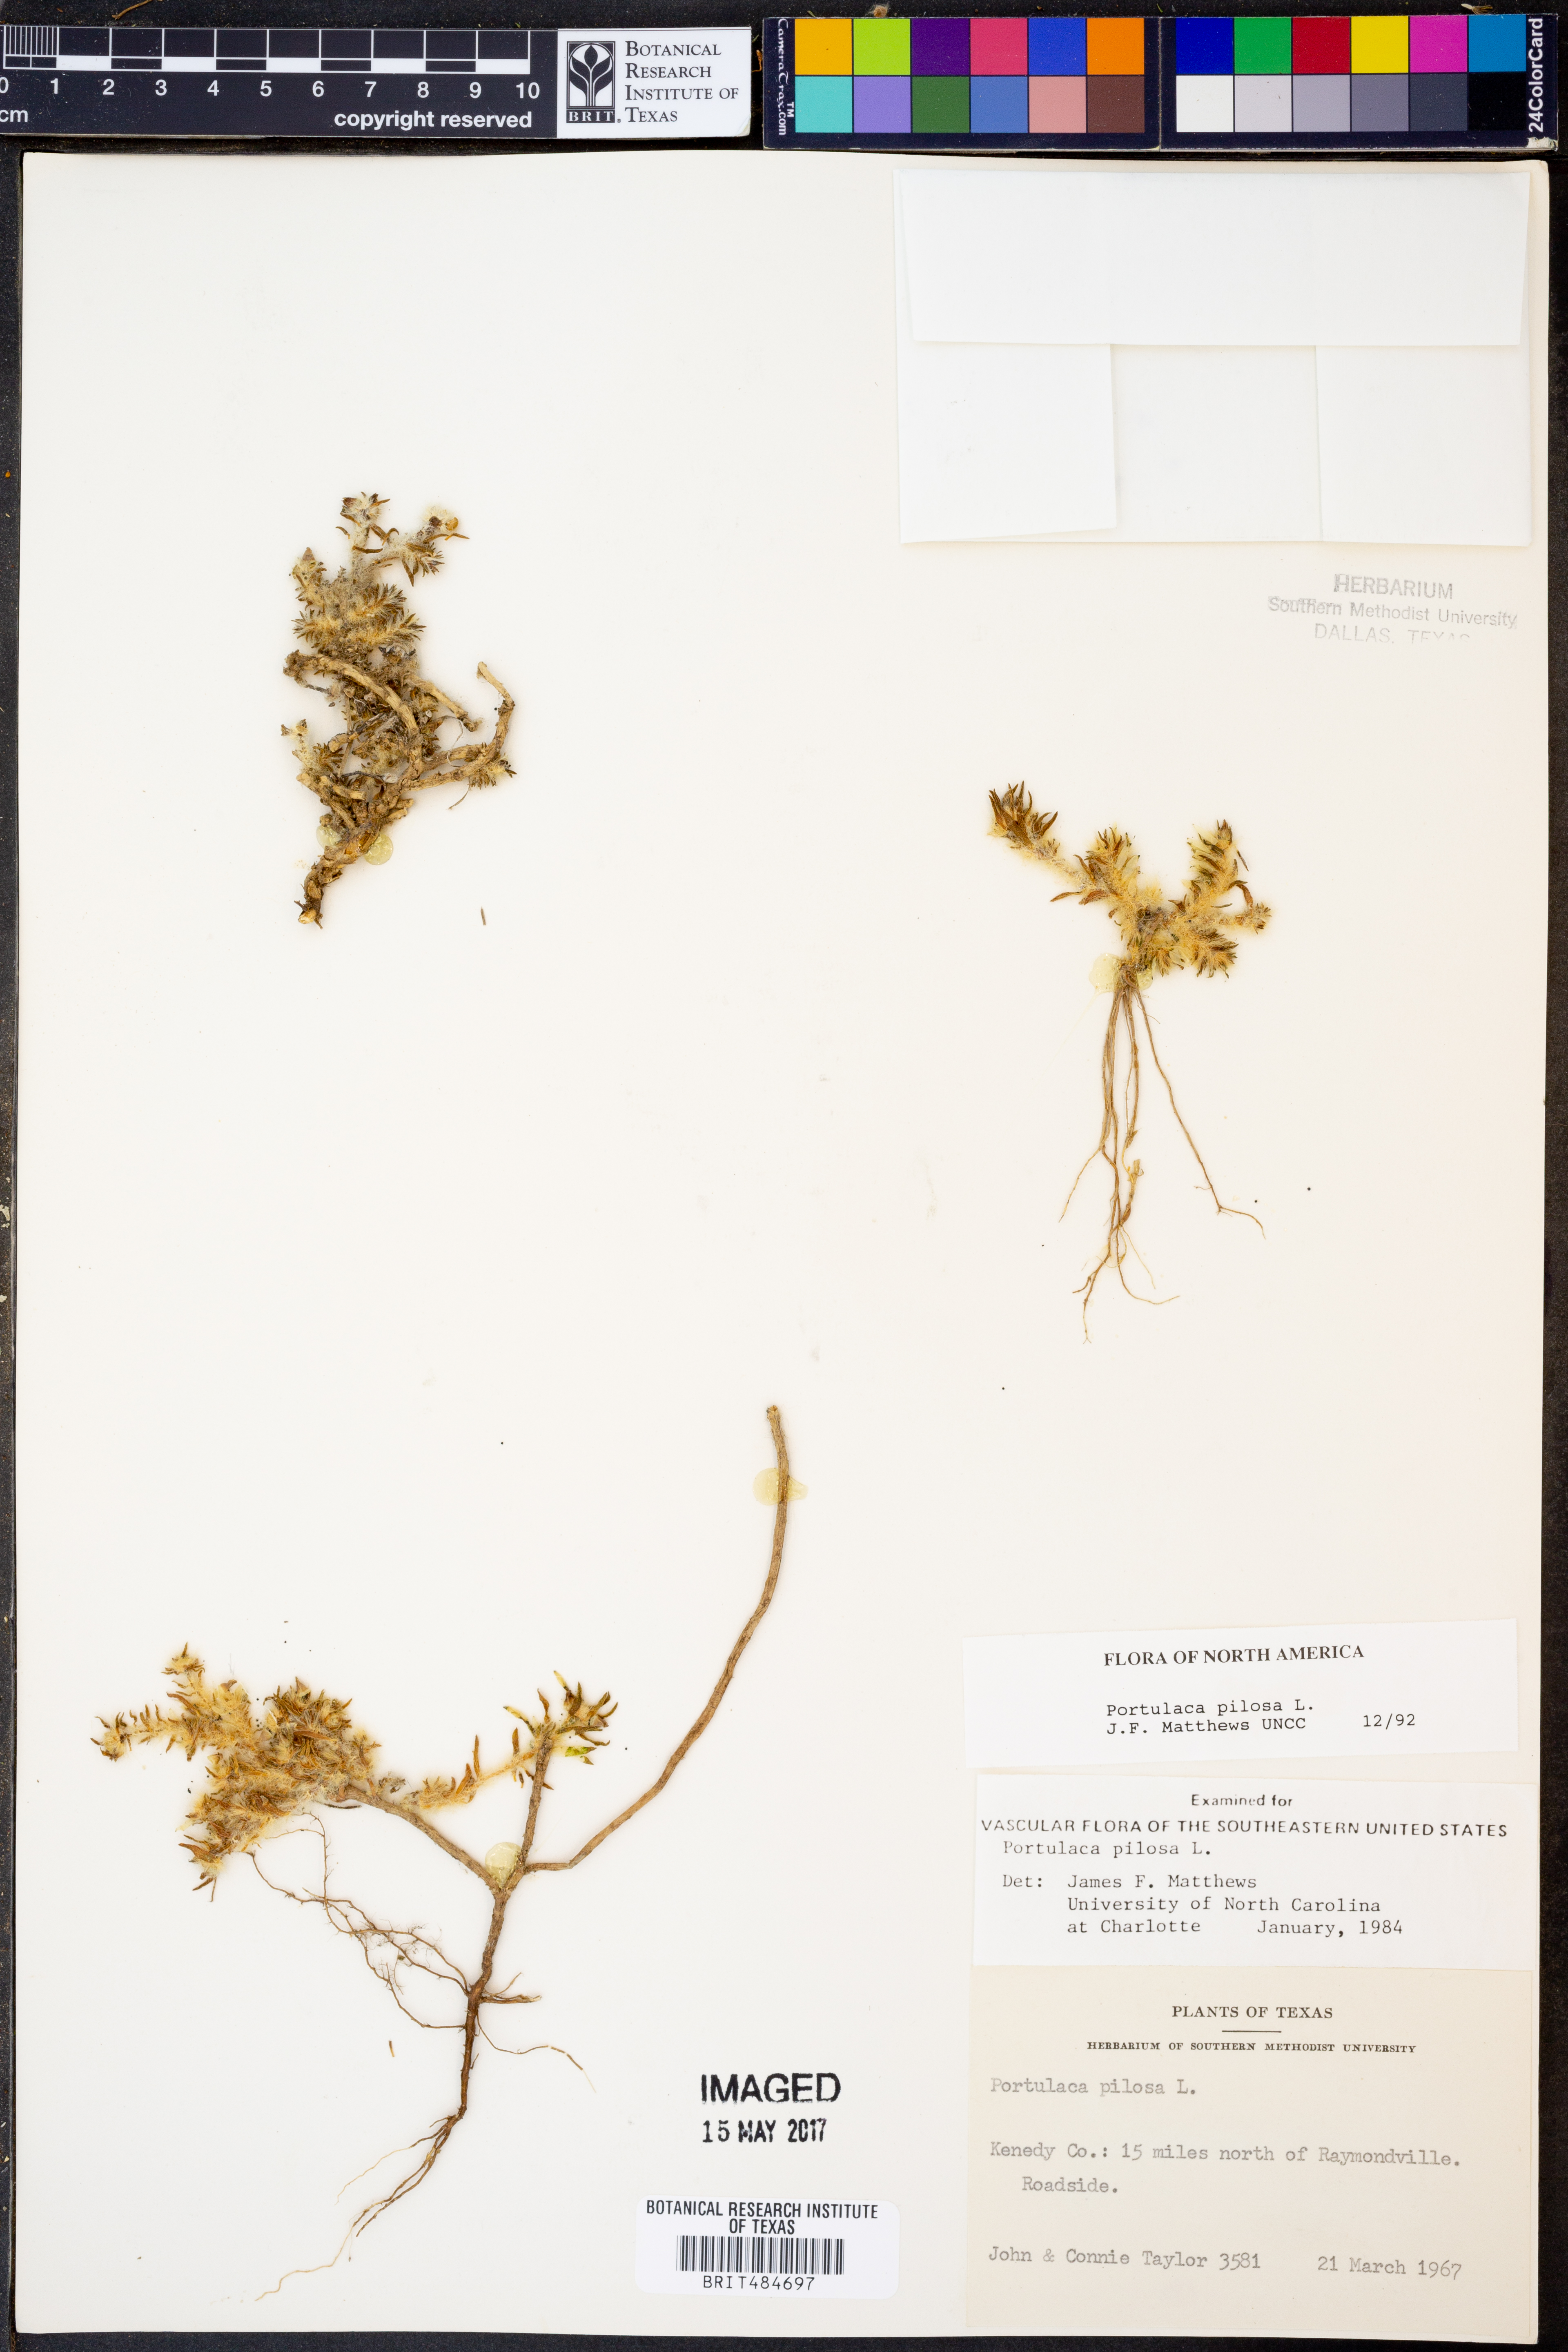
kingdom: Plantae
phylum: Tracheophyta
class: Magnoliopsida
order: Caryophyllales
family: Portulacaceae
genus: Portulaca
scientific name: Portulaca pilosa
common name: Kiss me quick
